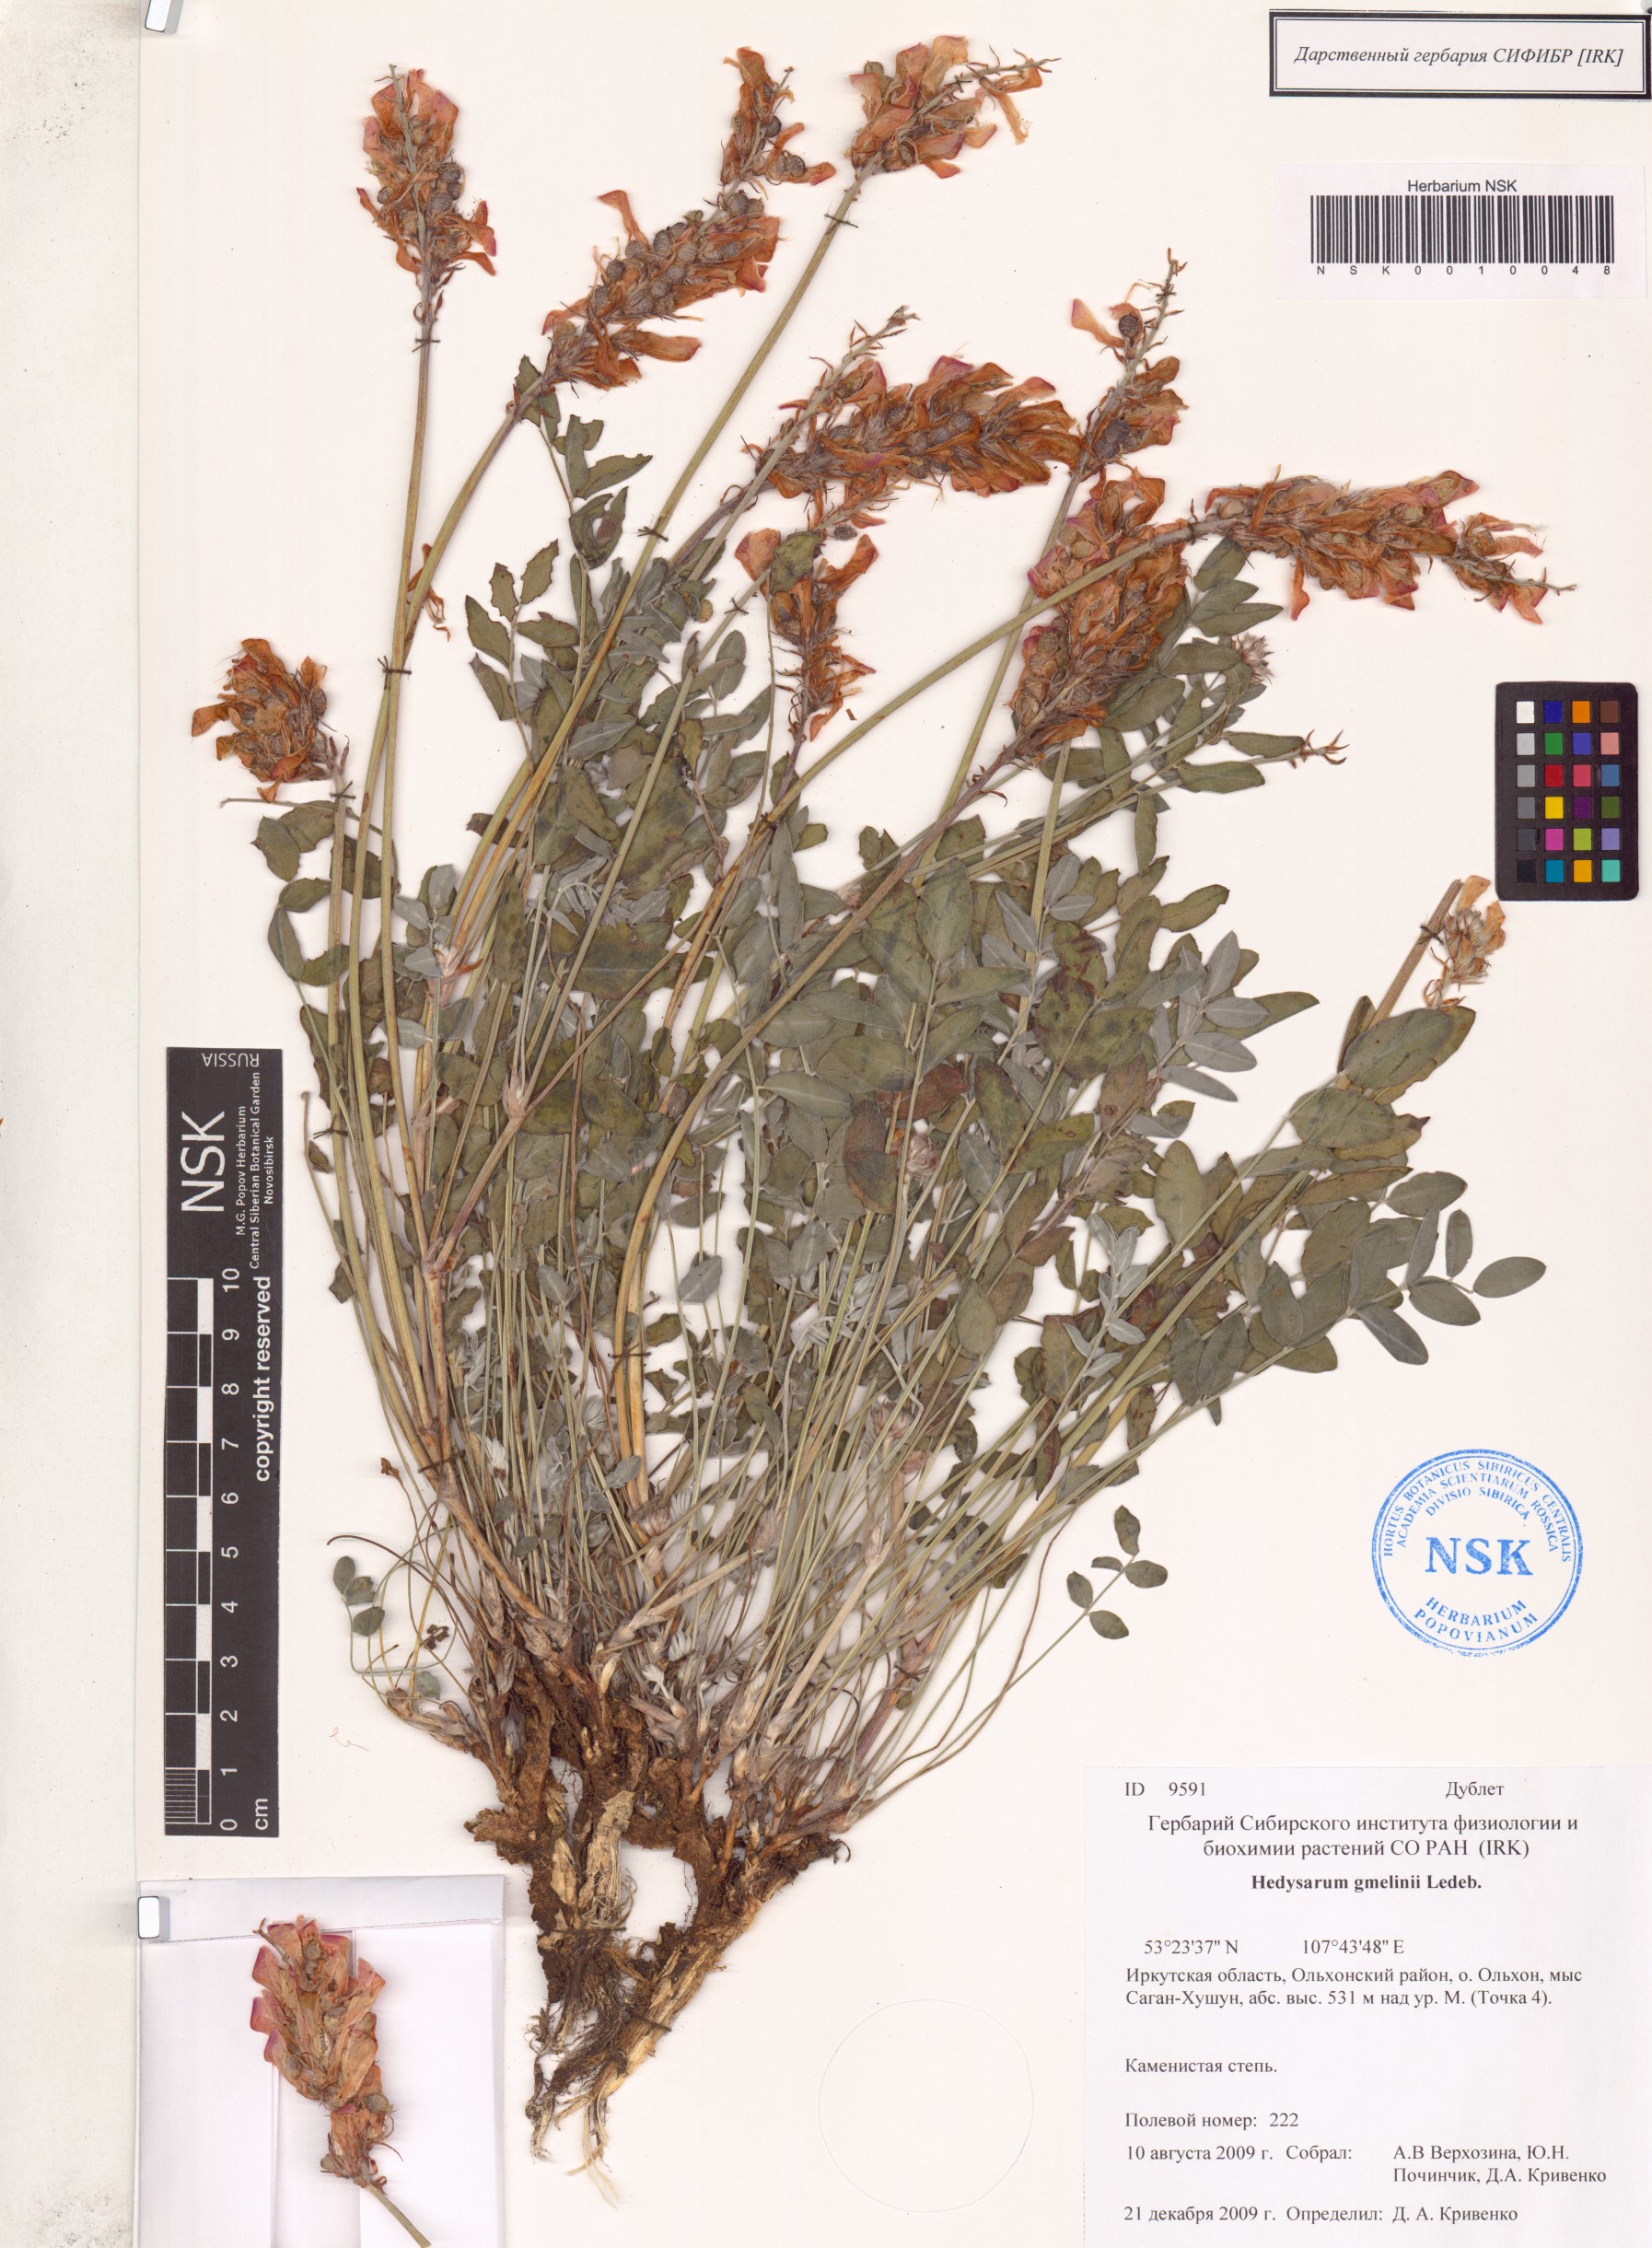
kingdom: Plantae
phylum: Tracheophyta
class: Magnoliopsida
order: Fabales
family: Fabaceae
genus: Hedysarum
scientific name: Hedysarum gmelinii
